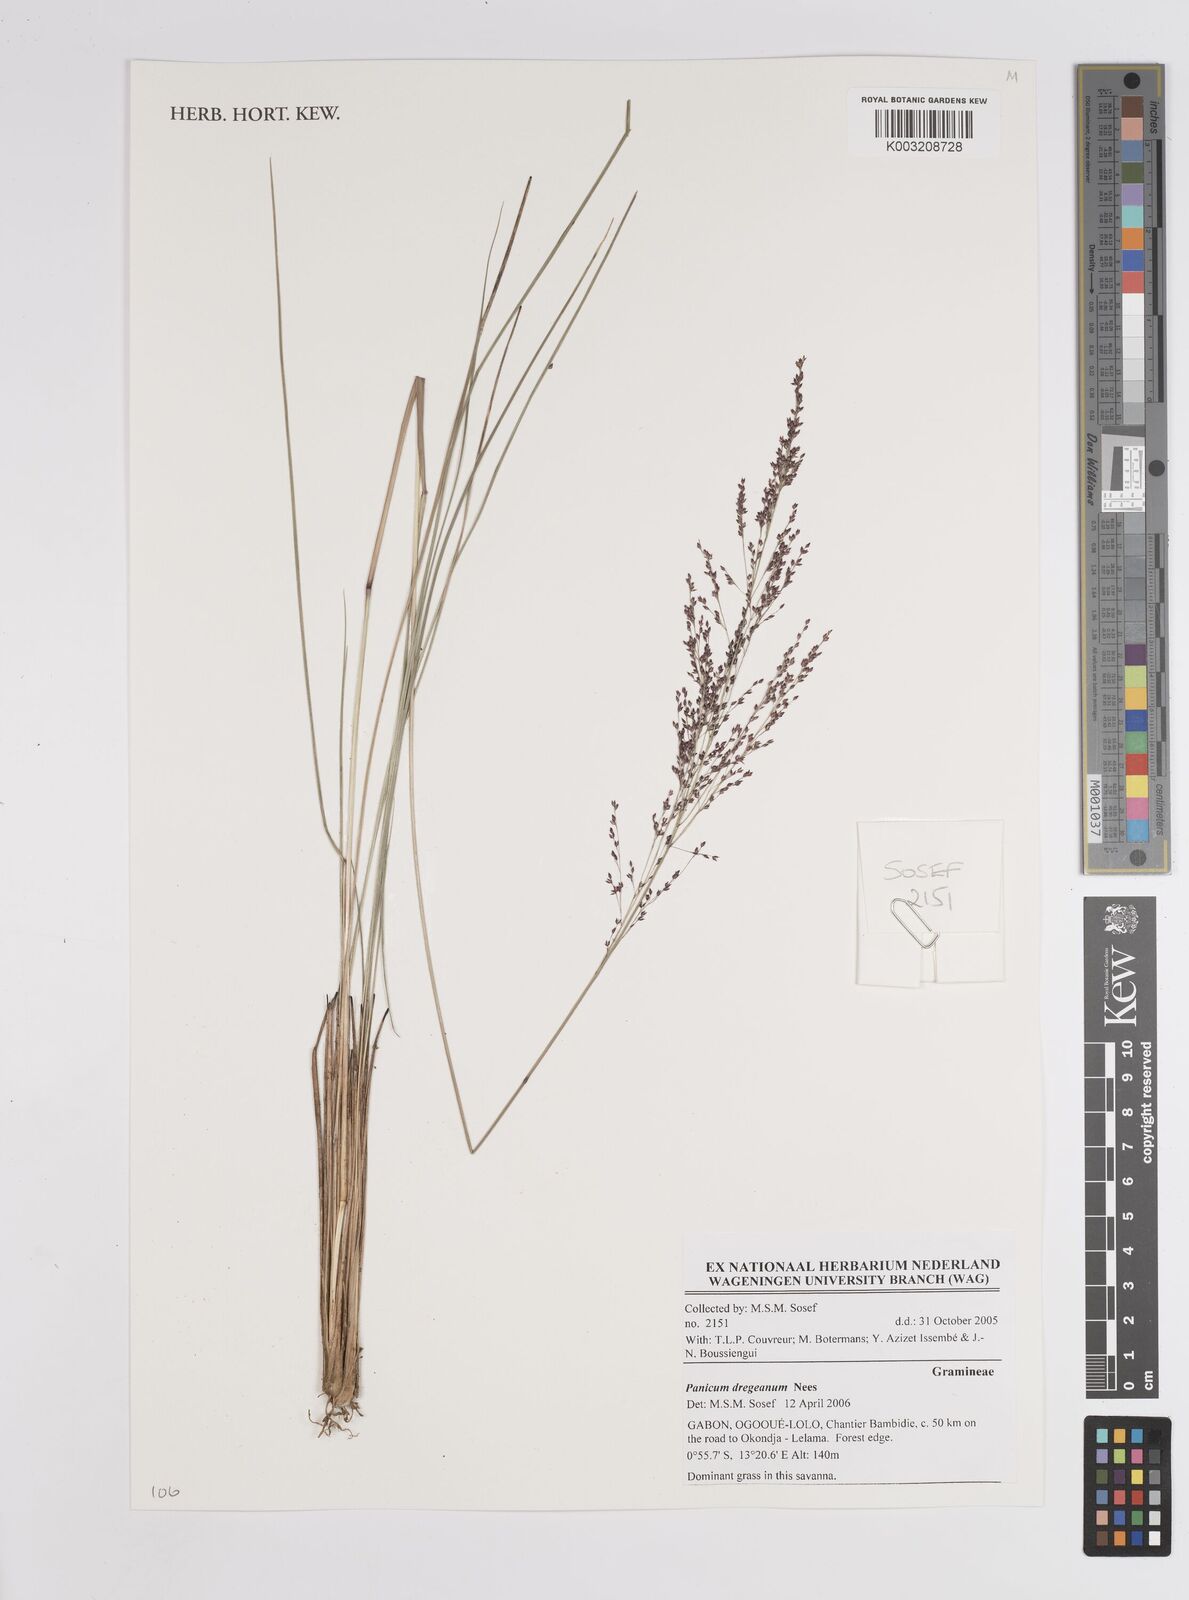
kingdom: Plantae
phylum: Tracheophyta
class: Liliopsida
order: Poales
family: Poaceae
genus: Panicum
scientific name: Panicum dregeanum
